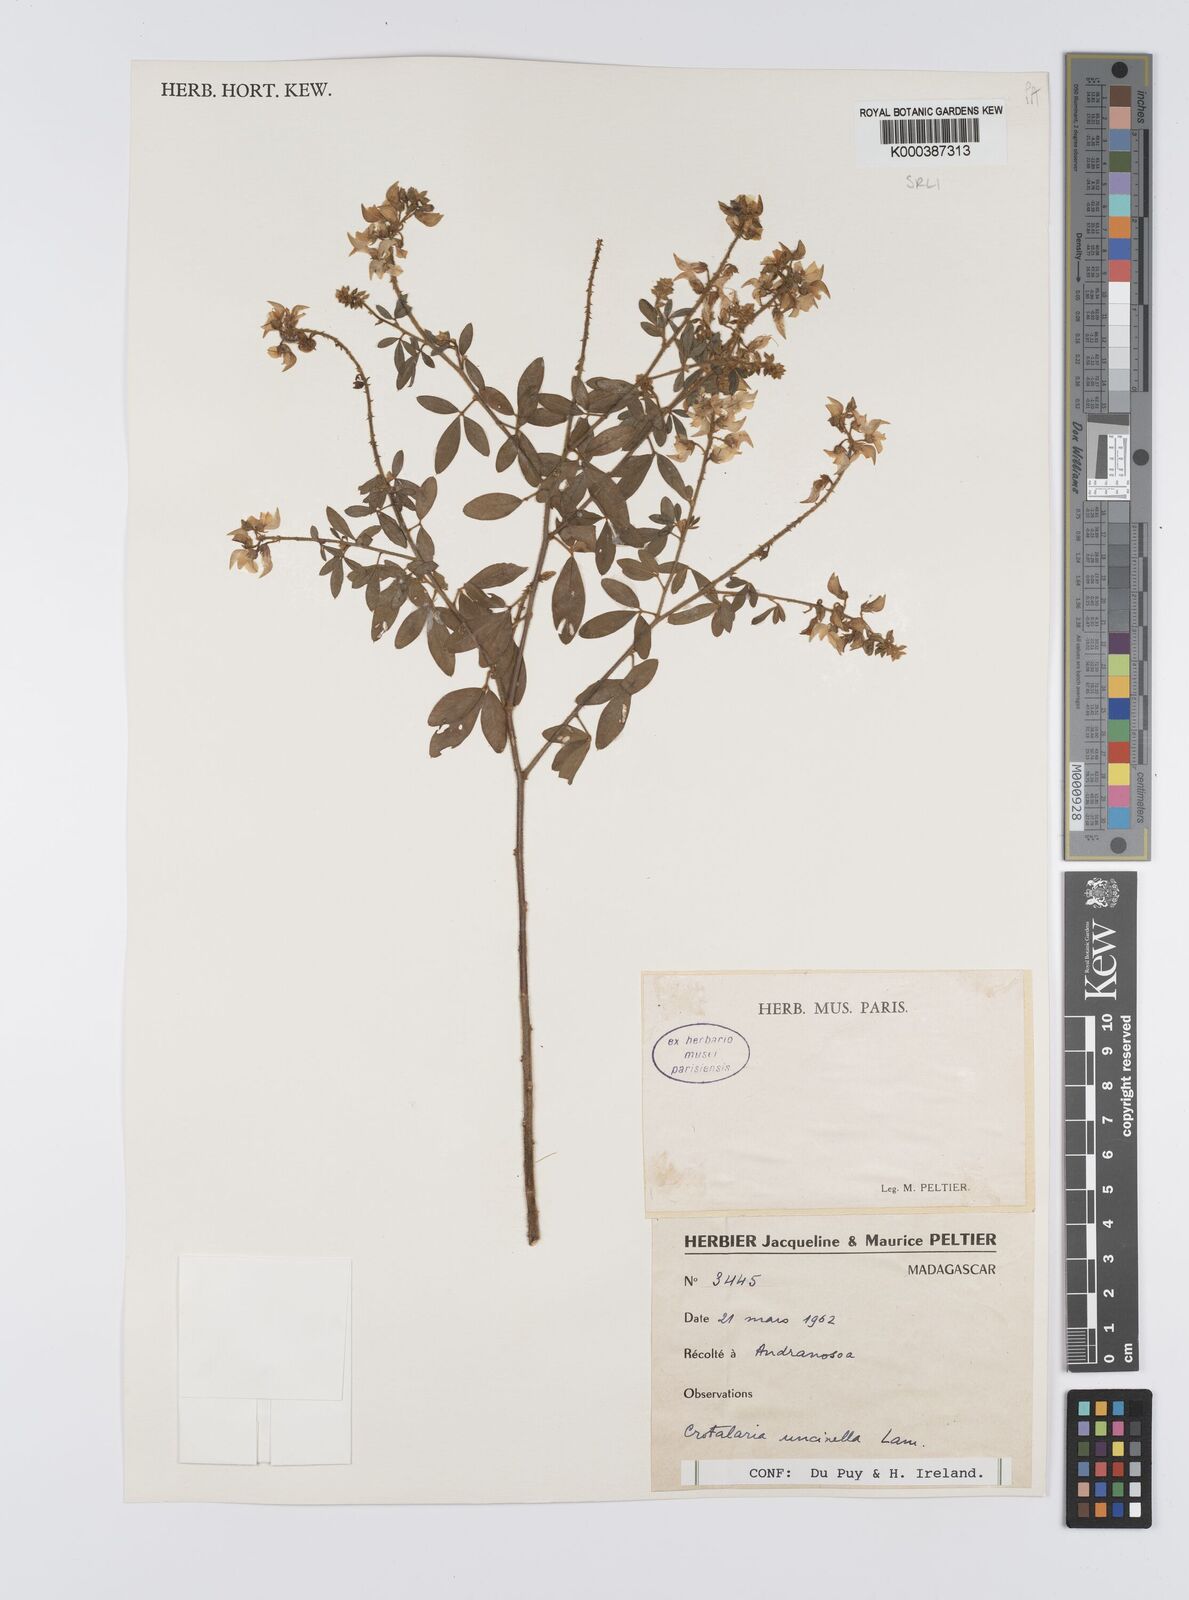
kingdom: Plantae
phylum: Tracheophyta
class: Magnoliopsida
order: Fabales
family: Fabaceae
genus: Crotalaria
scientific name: Crotalaria uncinella
